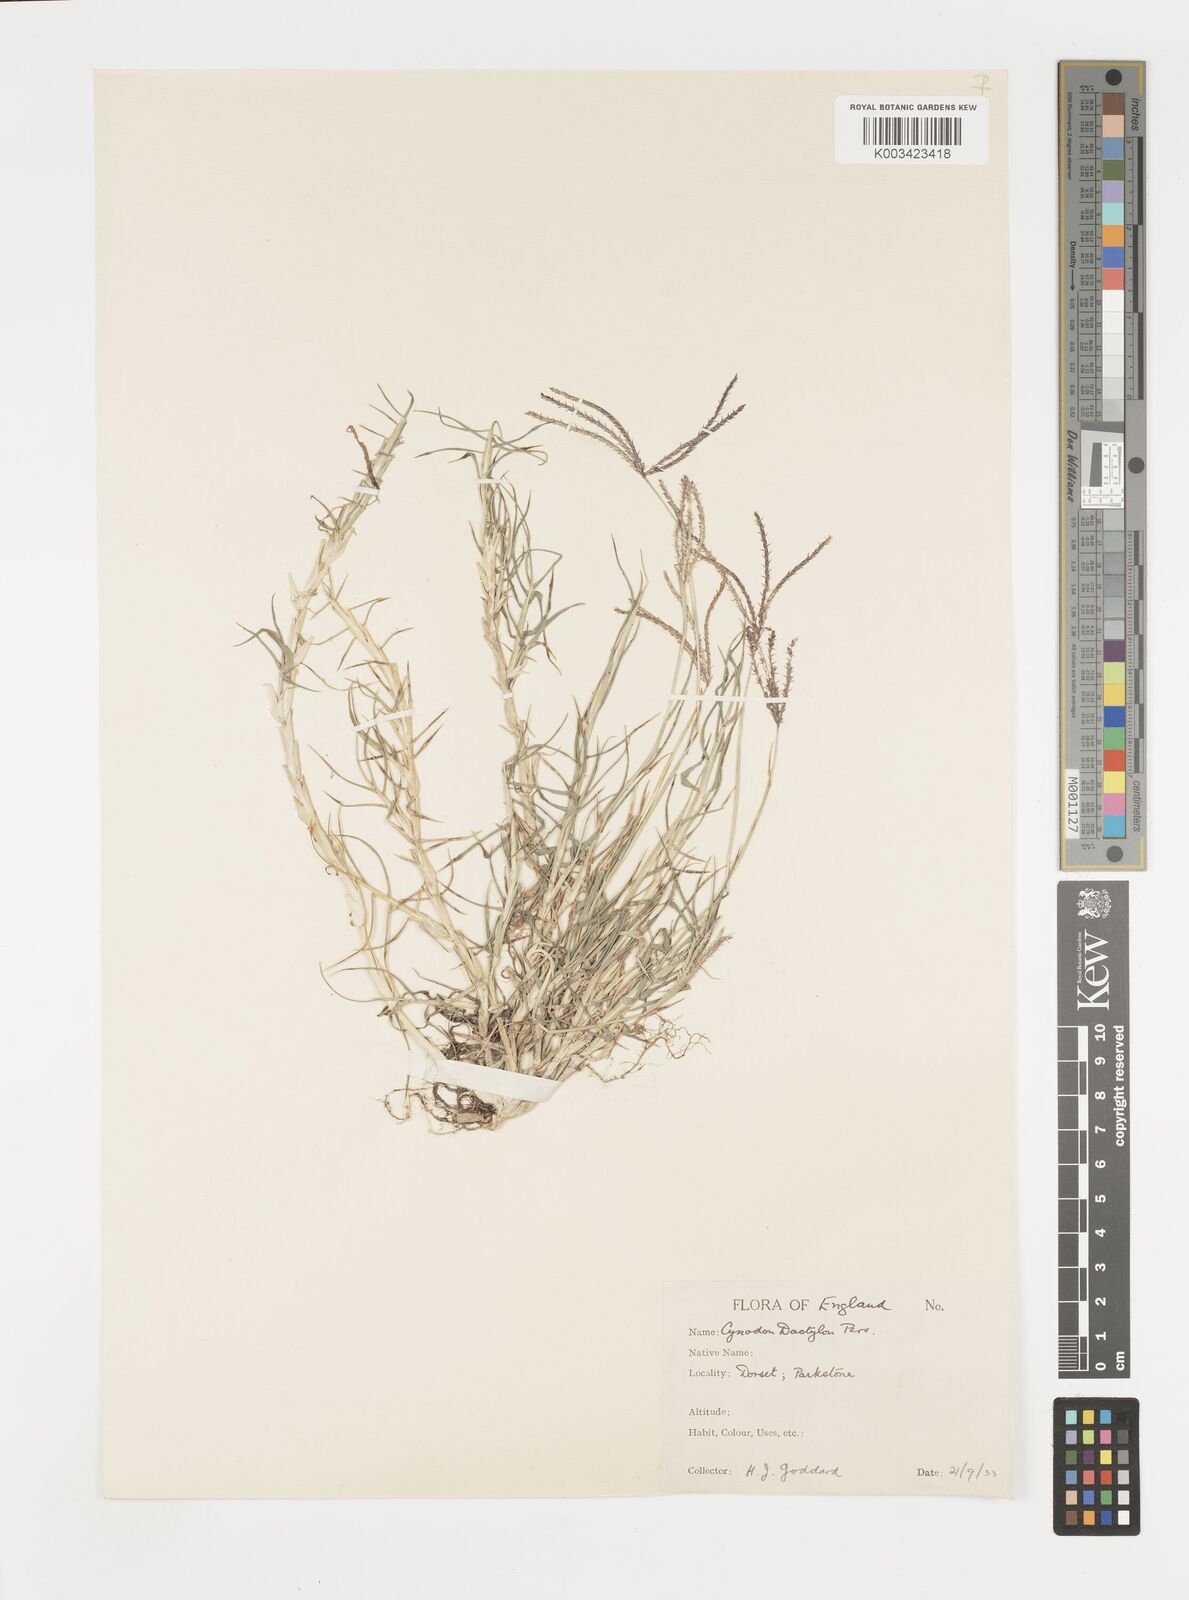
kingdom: Plantae
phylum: Tracheophyta
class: Liliopsida
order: Poales
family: Poaceae
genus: Cynodon
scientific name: Cynodon dactylon
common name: Bermuda grass
